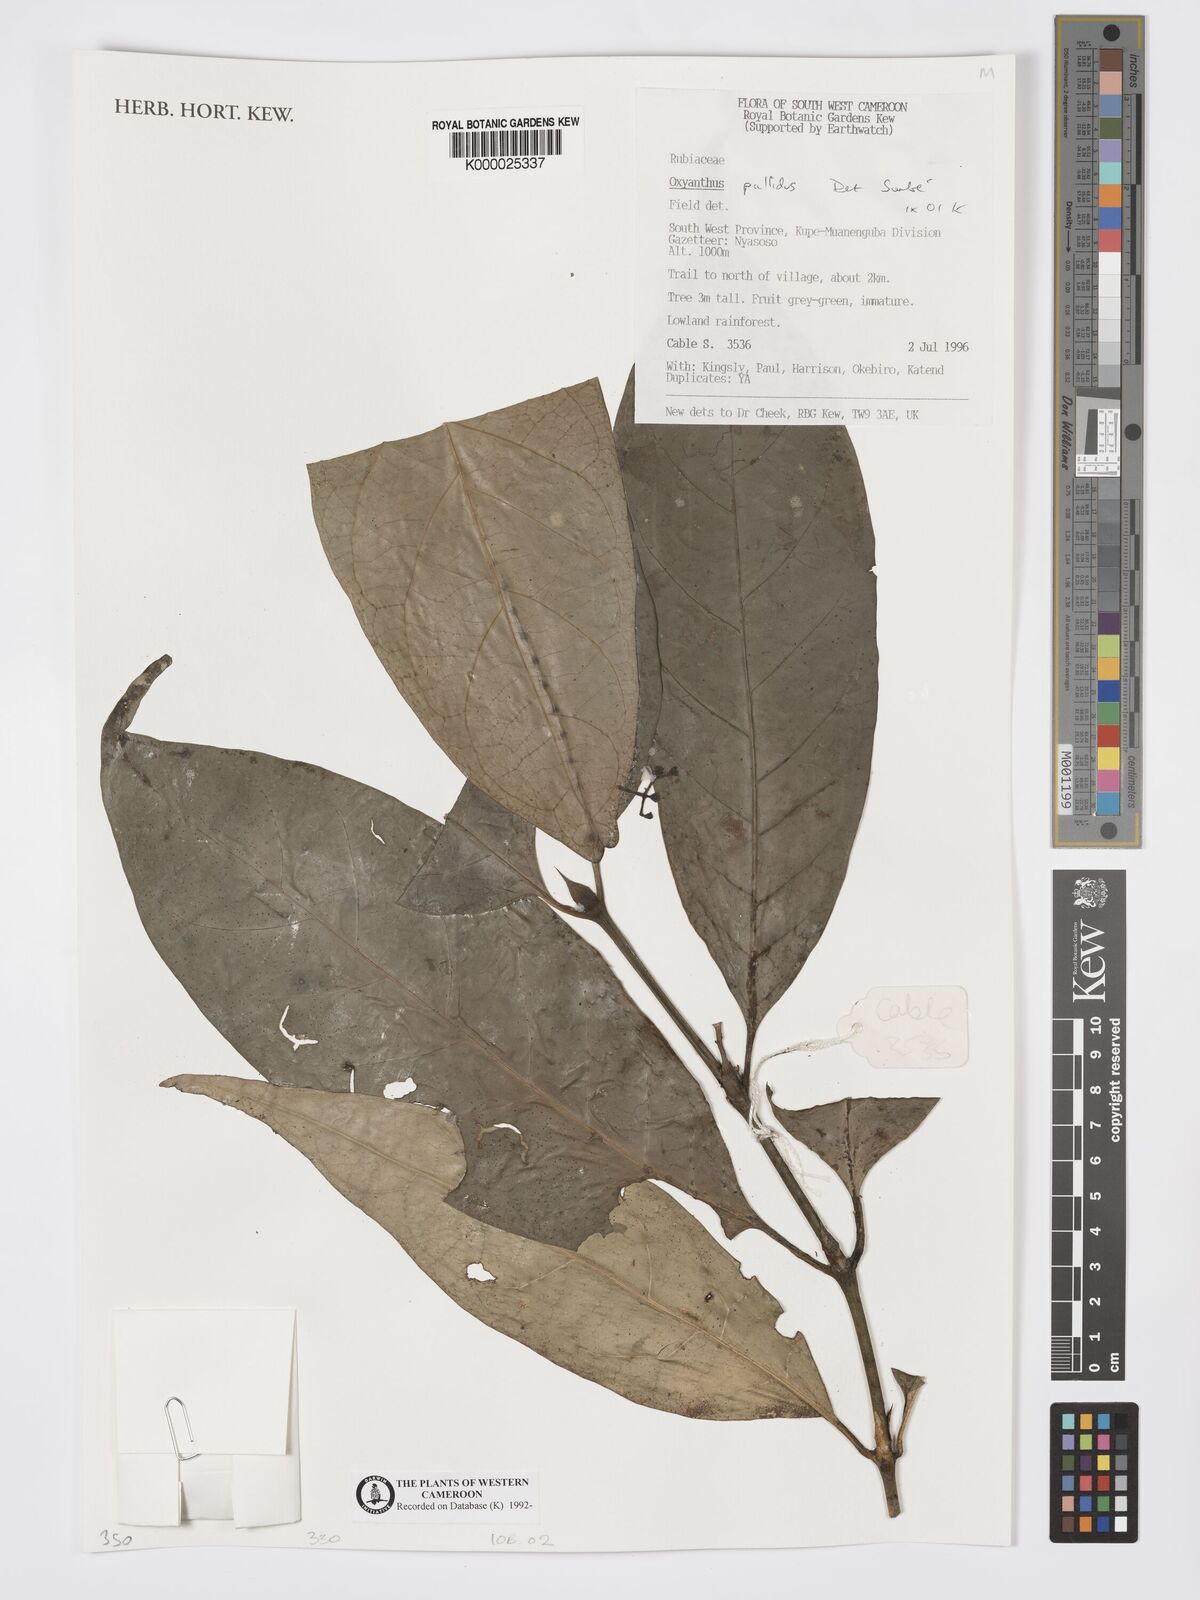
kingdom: Plantae
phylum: Tracheophyta
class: Magnoliopsida
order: Gentianales
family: Rubiaceae
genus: Oxyanthus
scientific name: Oxyanthus pallidus
